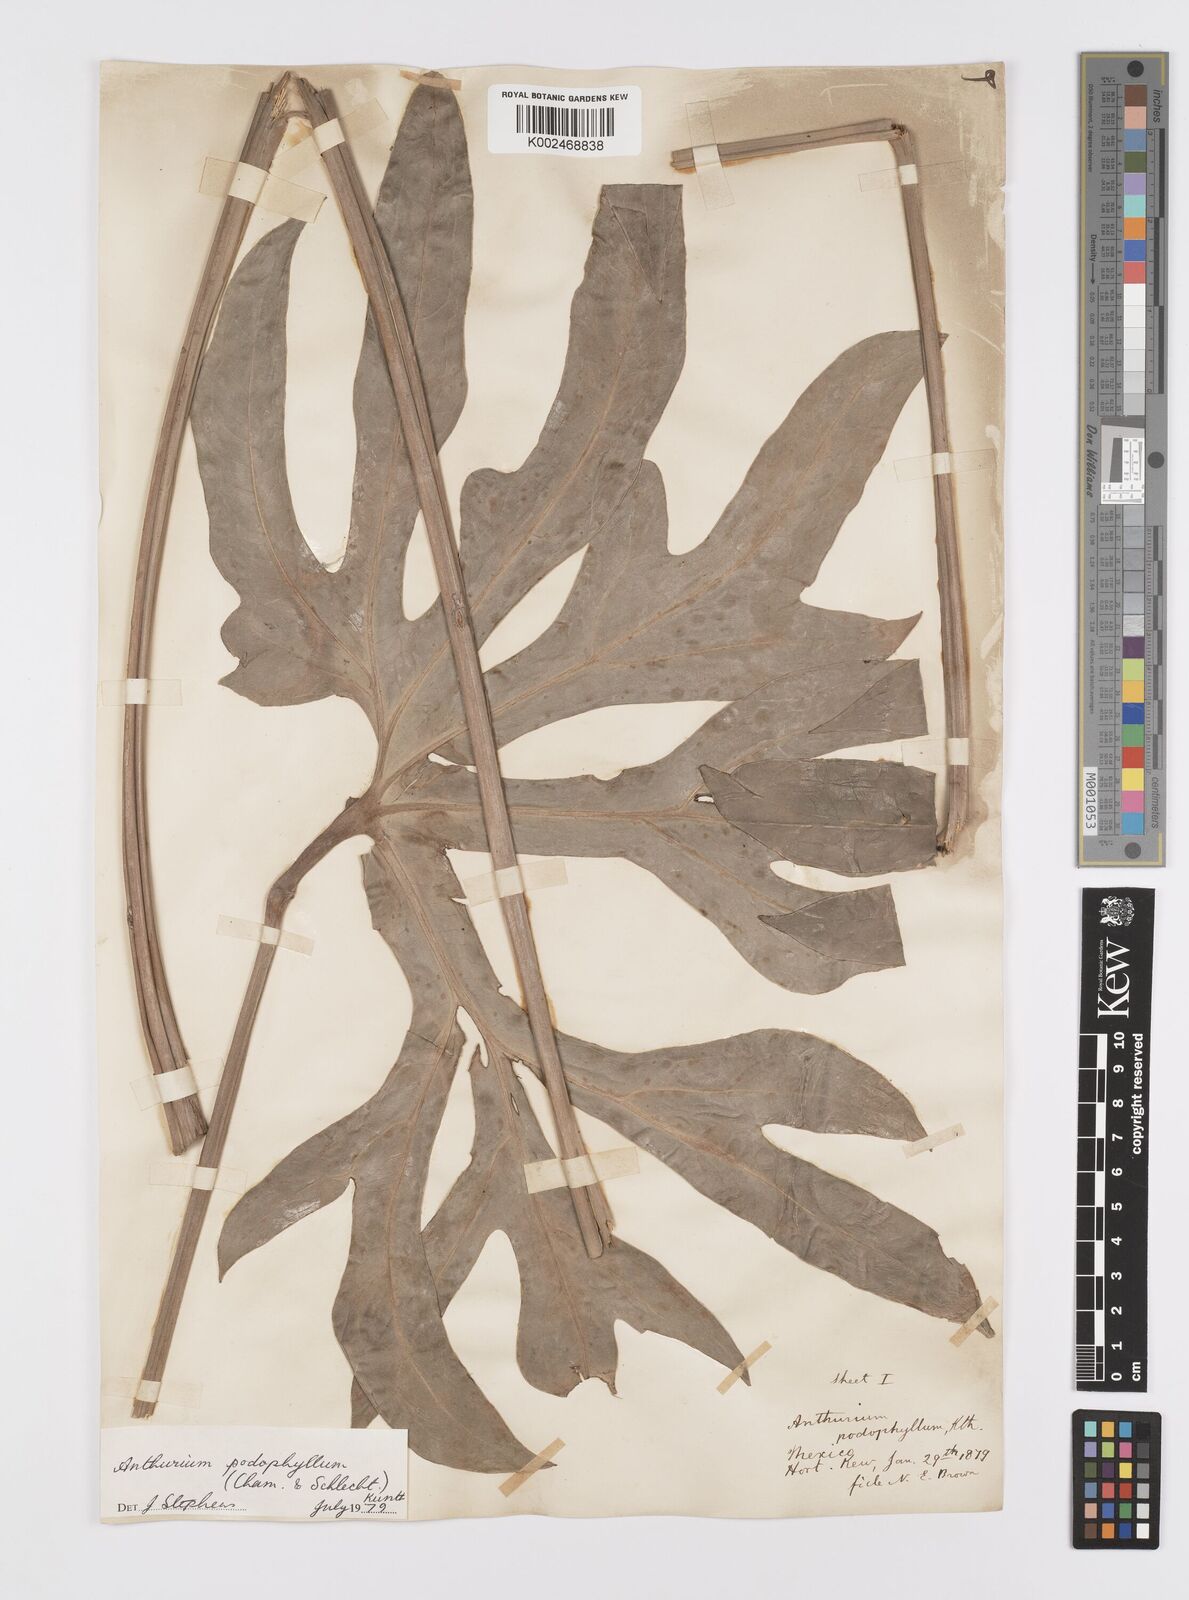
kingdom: Plantae
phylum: Tracheophyta
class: Liliopsida
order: Alismatales
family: Araceae
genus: Anthurium
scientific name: Anthurium podophyllum
